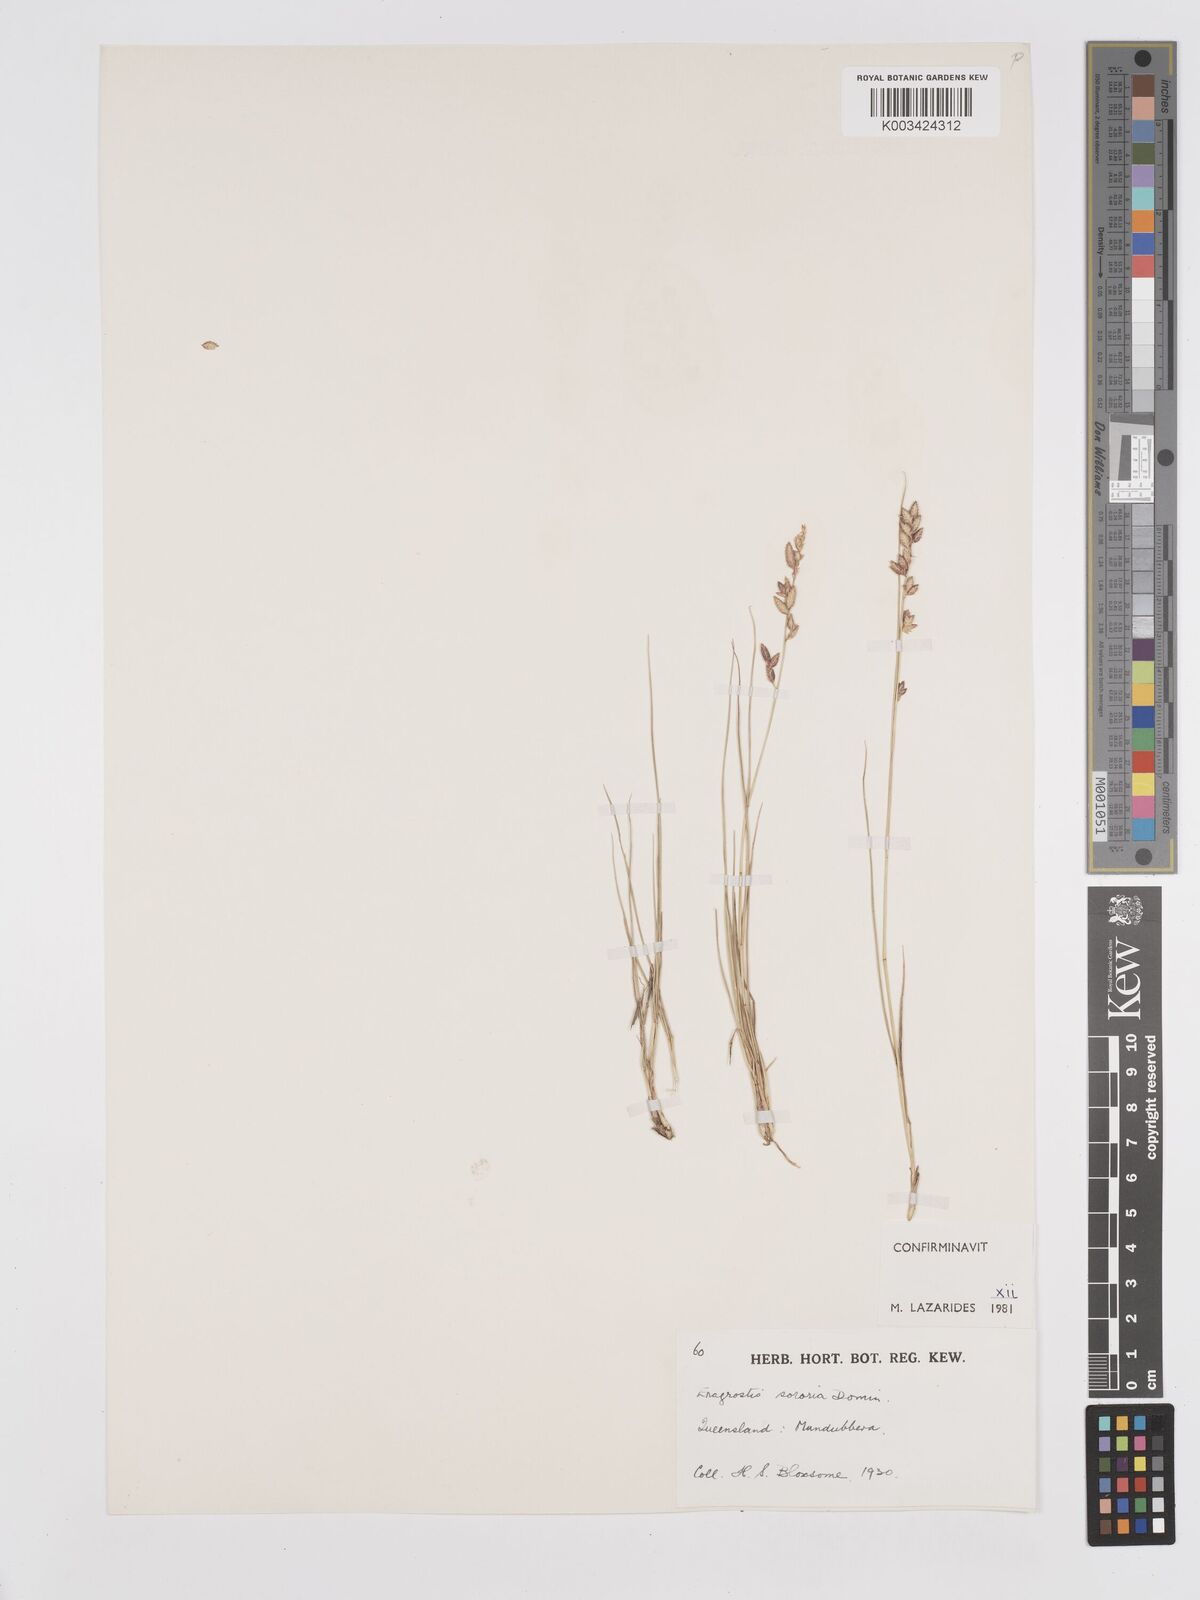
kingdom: Plantae
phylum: Tracheophyta
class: Liliopsida
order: Poales
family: Poaceae
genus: Eragrostis
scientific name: Eragrostis sororia
